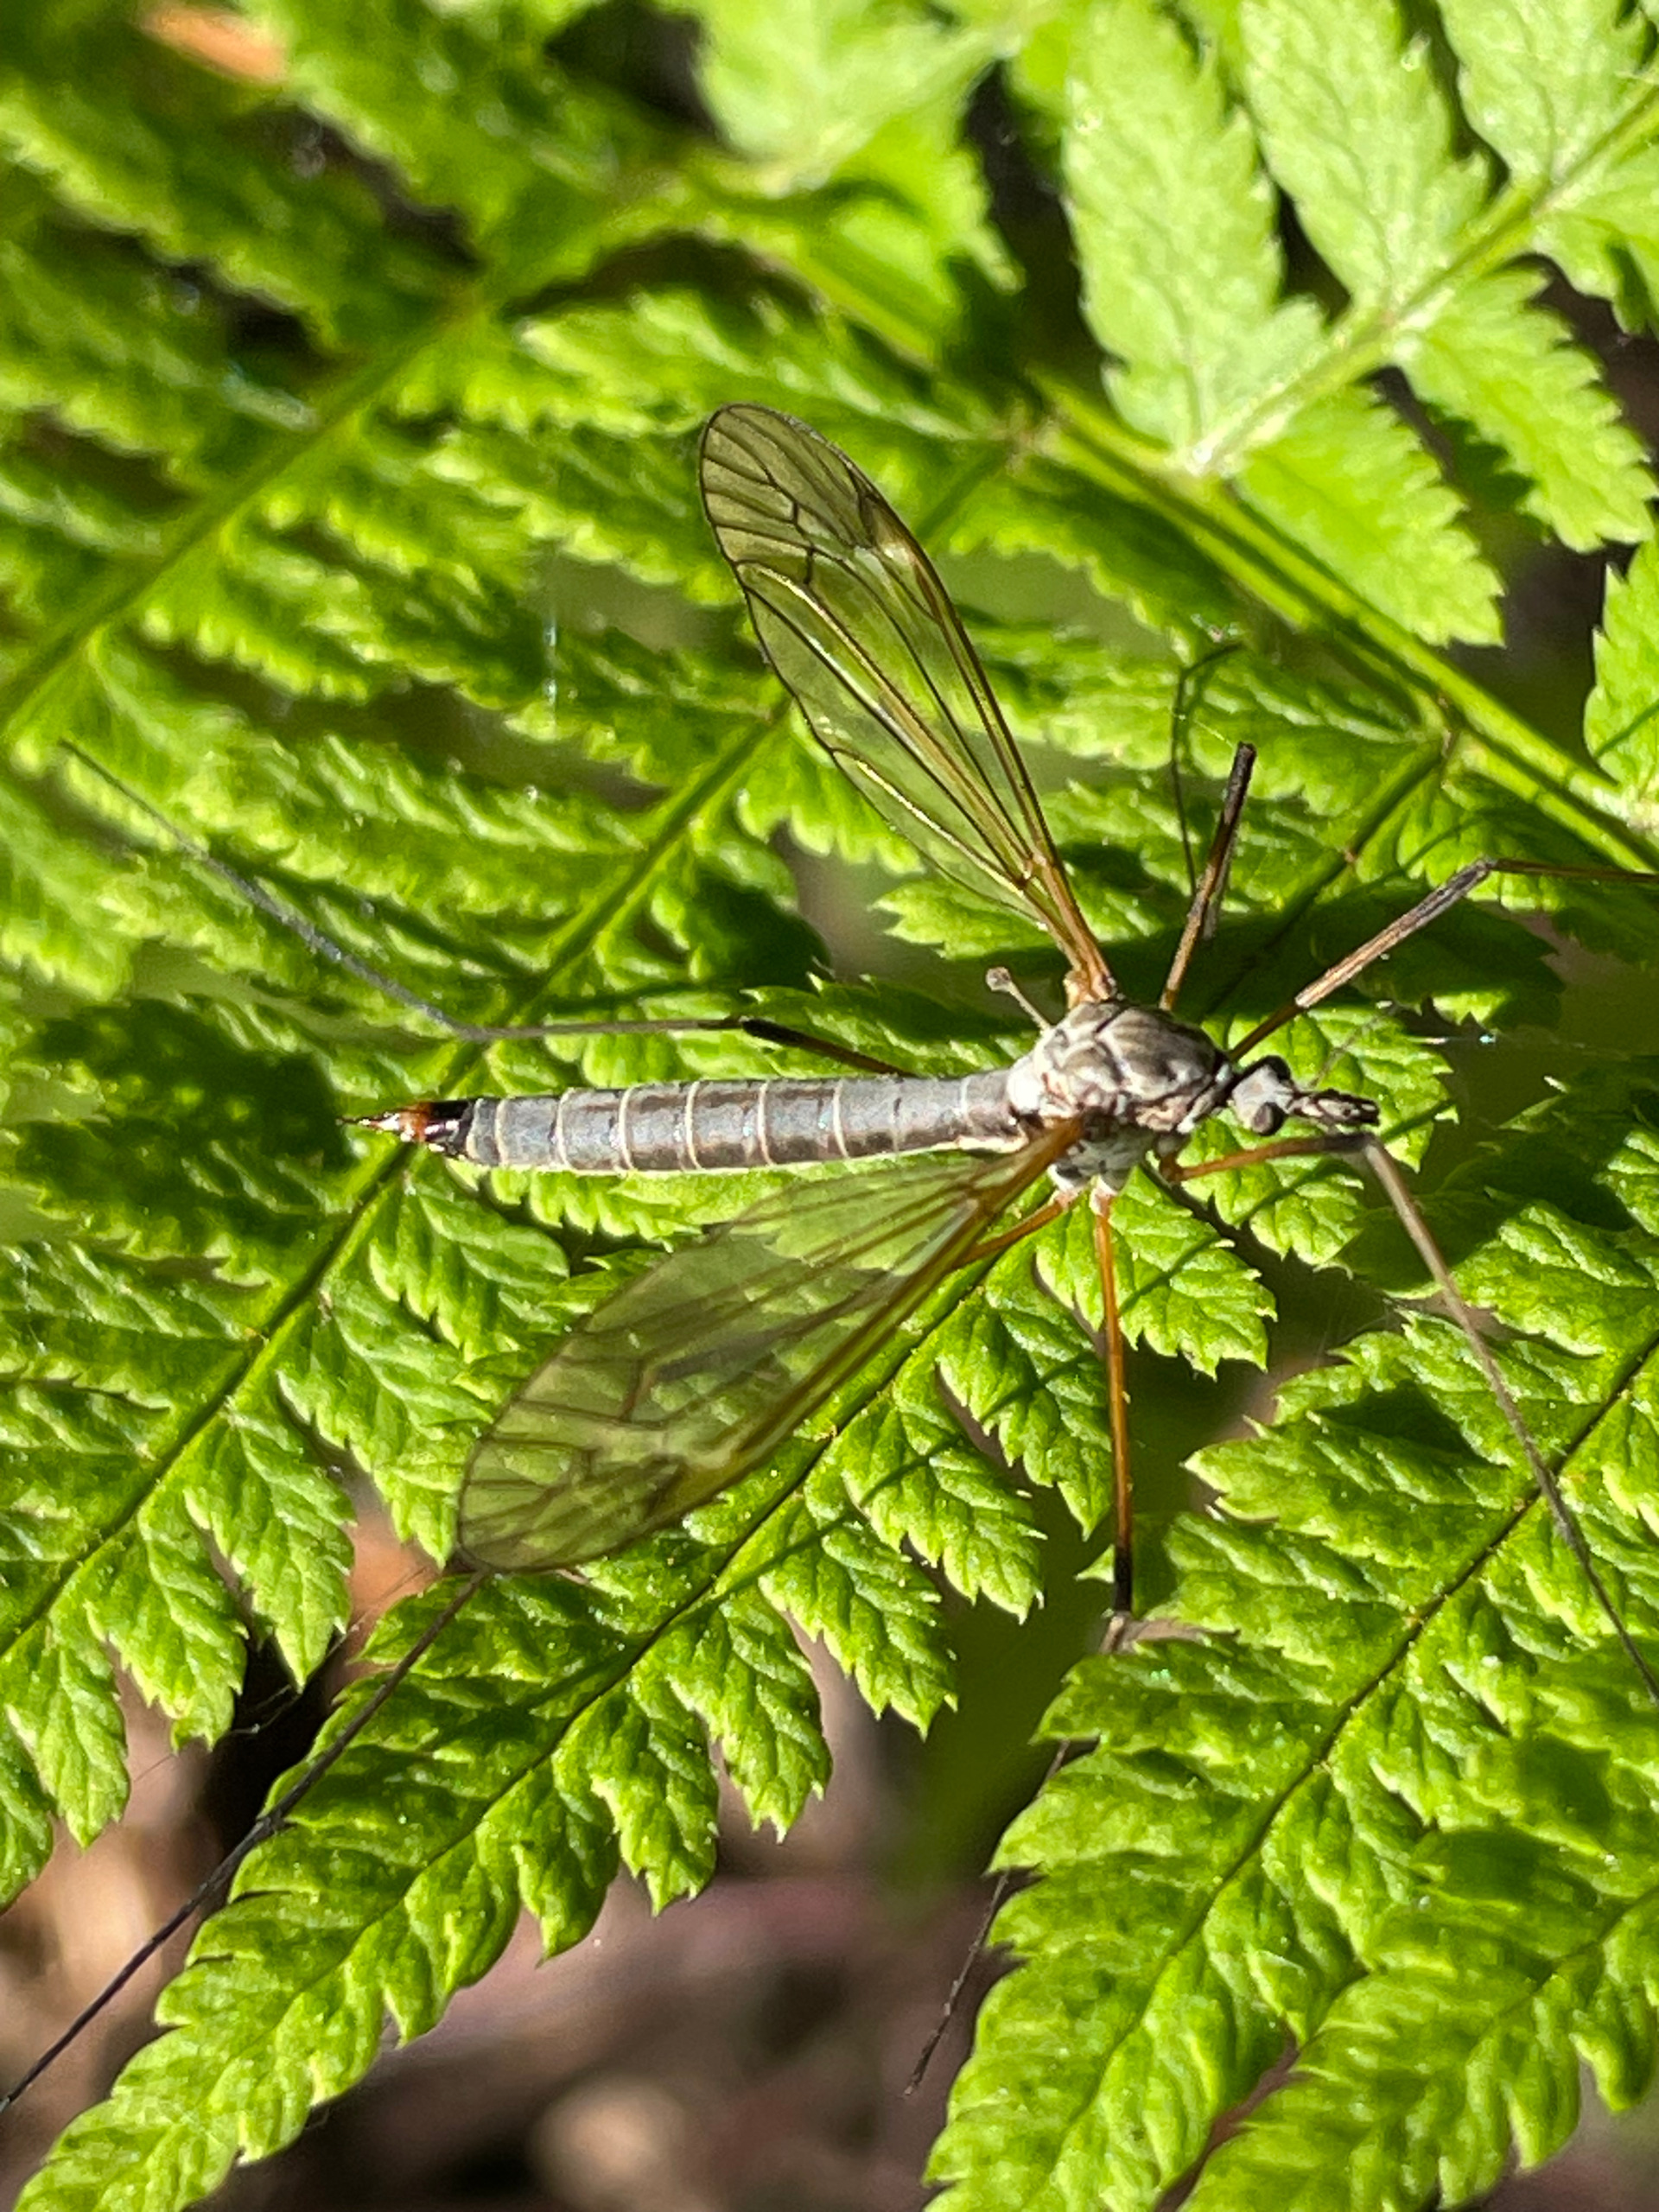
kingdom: Animalia
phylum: Arthropoda
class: Insecta
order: Diptera
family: Tipulidae
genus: Tipula
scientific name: Tipula luna
